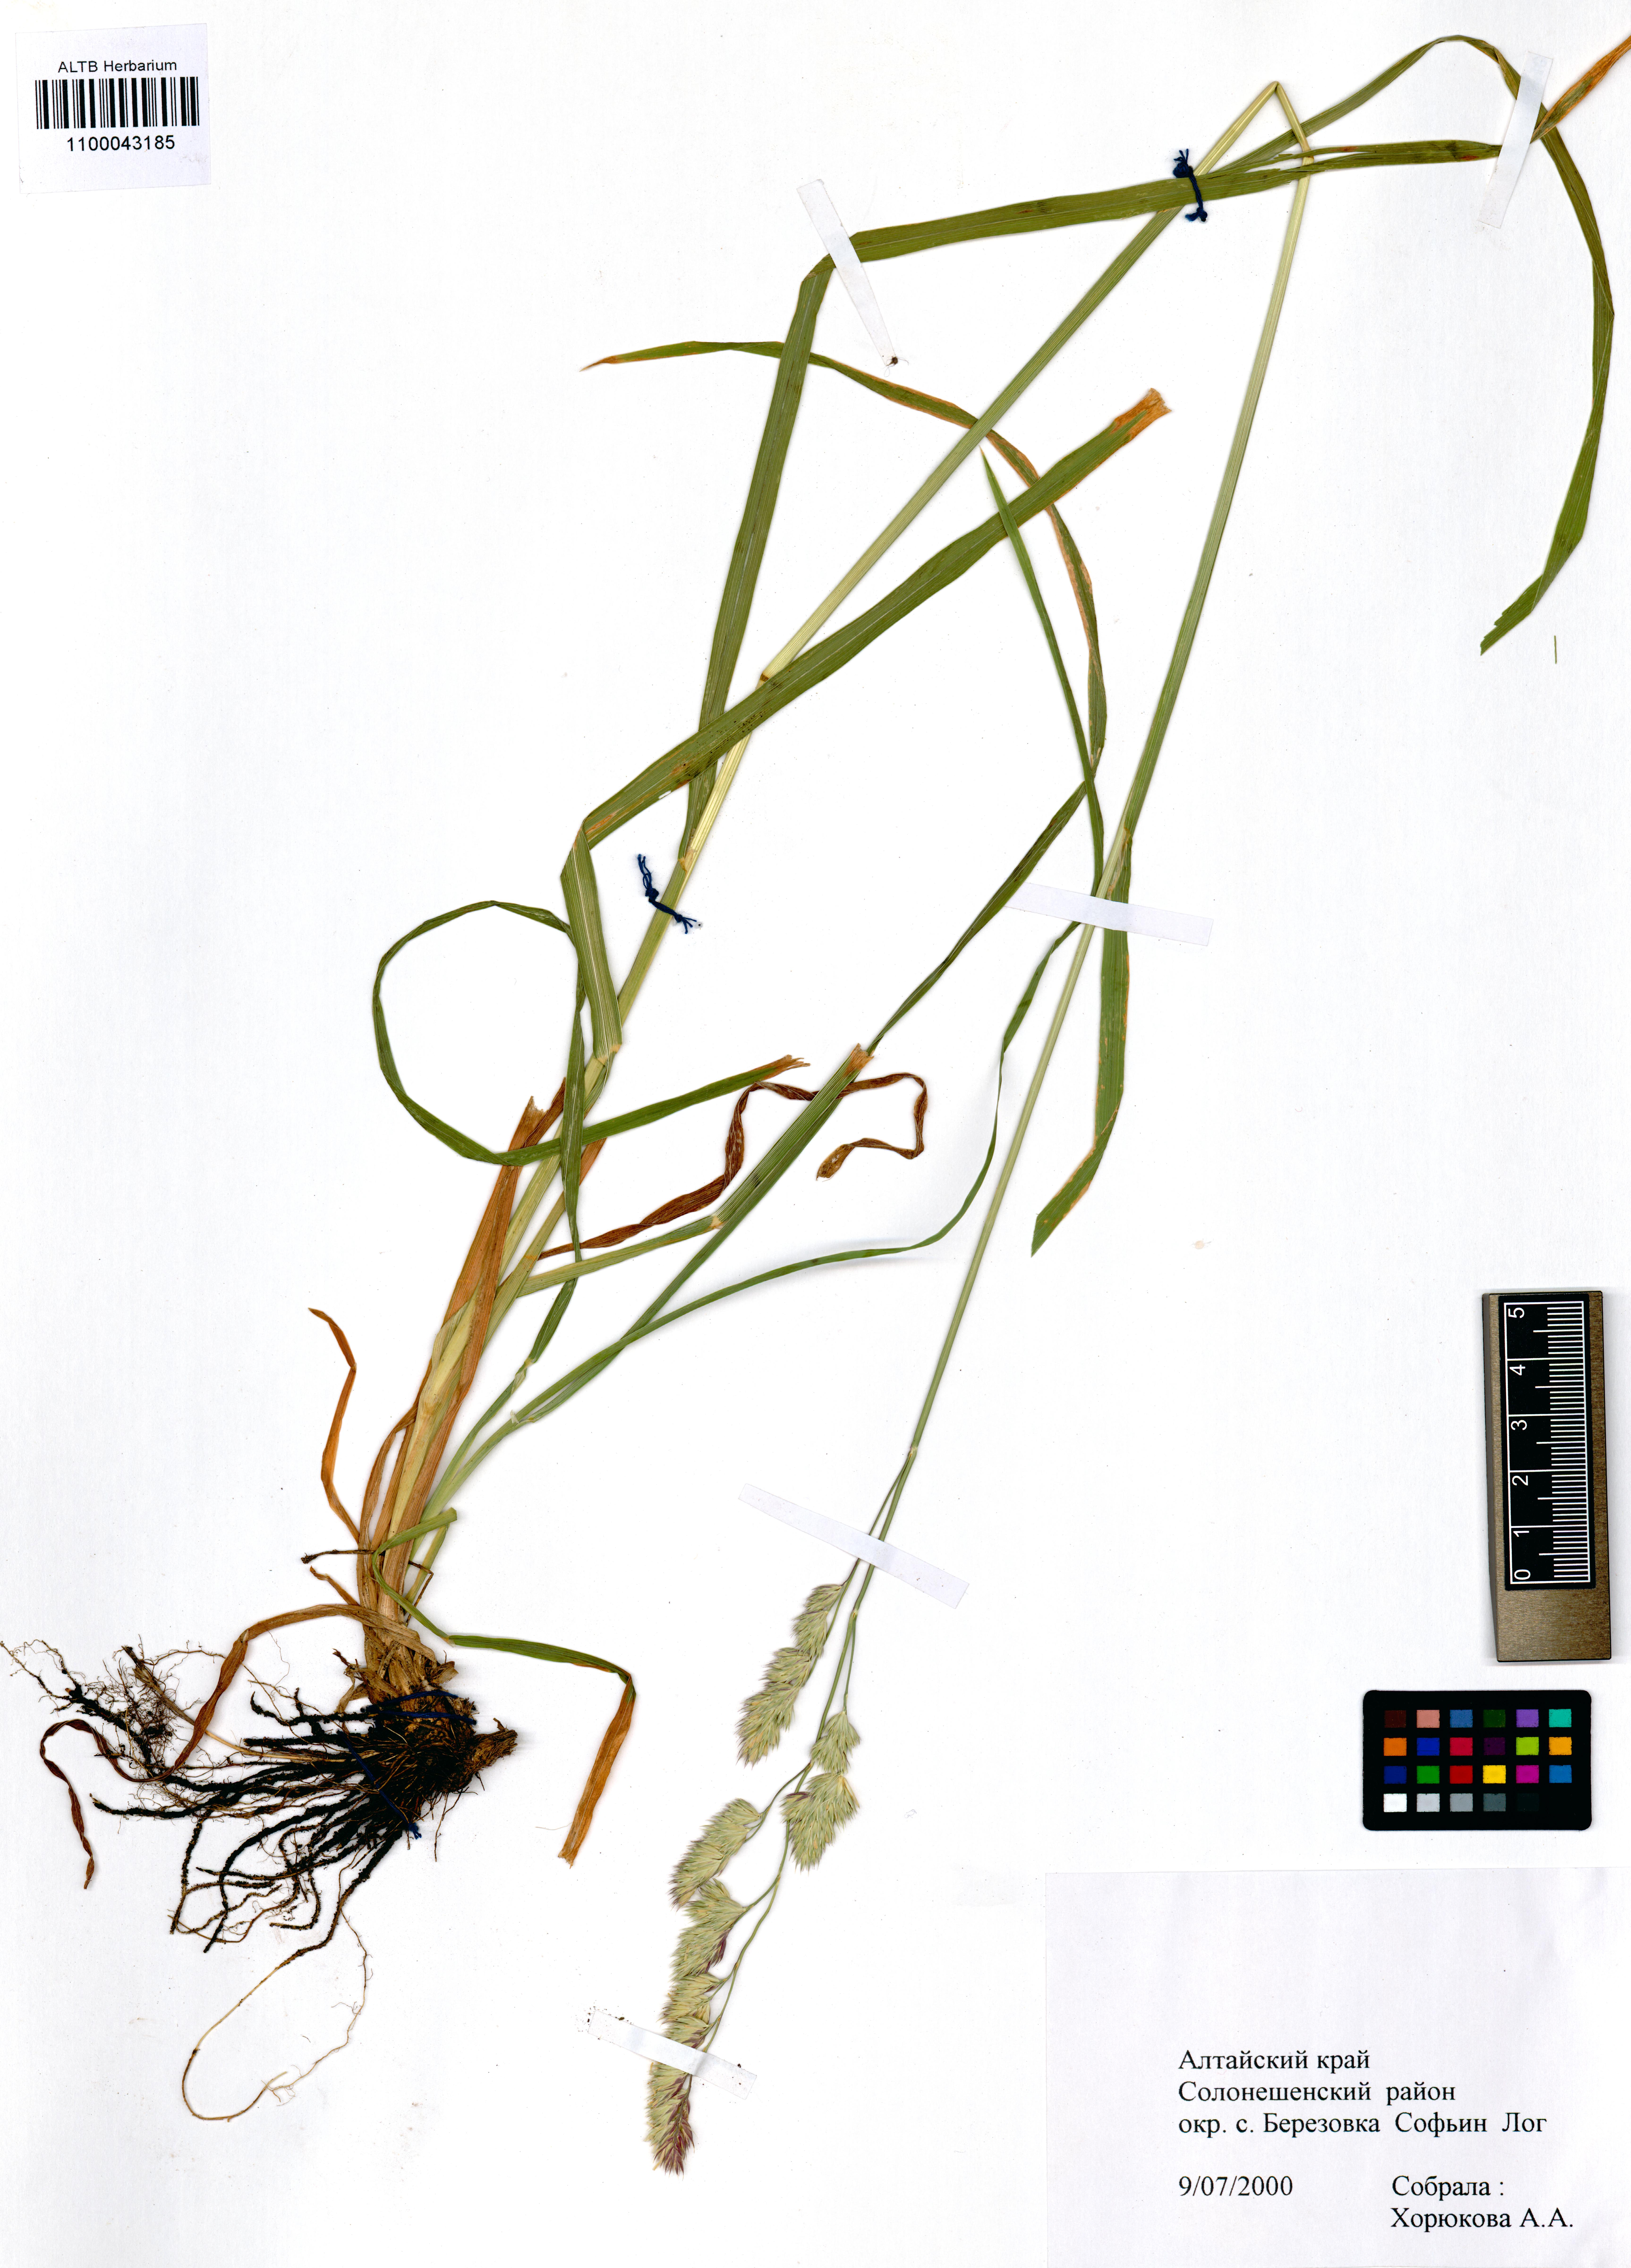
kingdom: Plantae
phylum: Tracheophyta
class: Liliopsida
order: Poales
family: Poaceae
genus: Dactylis
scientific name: Dactylis glomerata
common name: Orchardgrass
